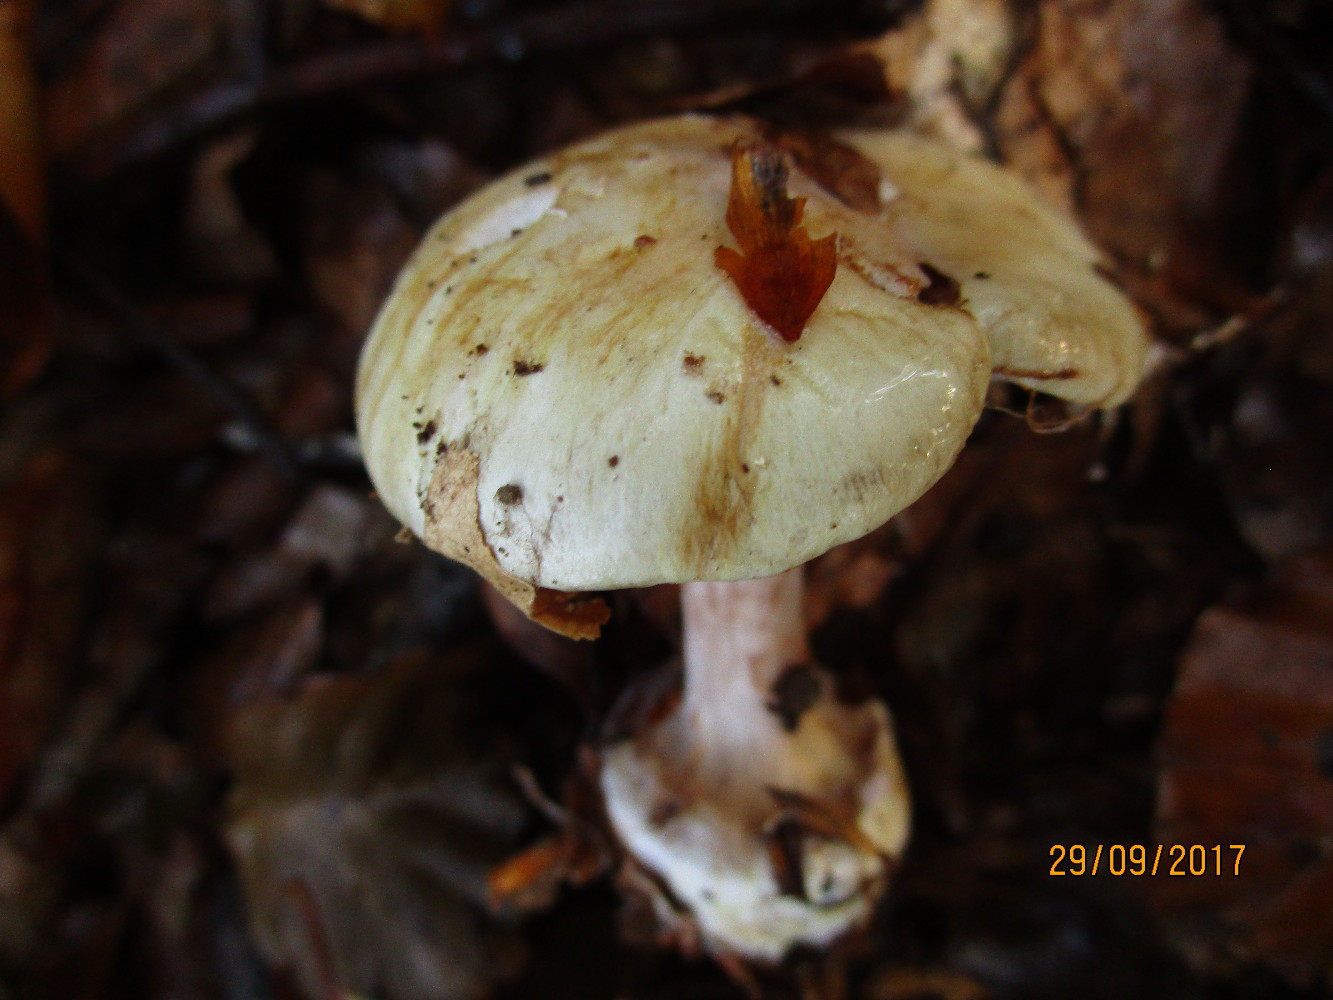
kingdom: Fungi
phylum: Basidiomycota
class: Agaricomycetes
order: Agaricales
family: Cortinariaceae
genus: Calonarius
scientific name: Calonarius lilacinovelatus
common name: violetknoldet slørhat
